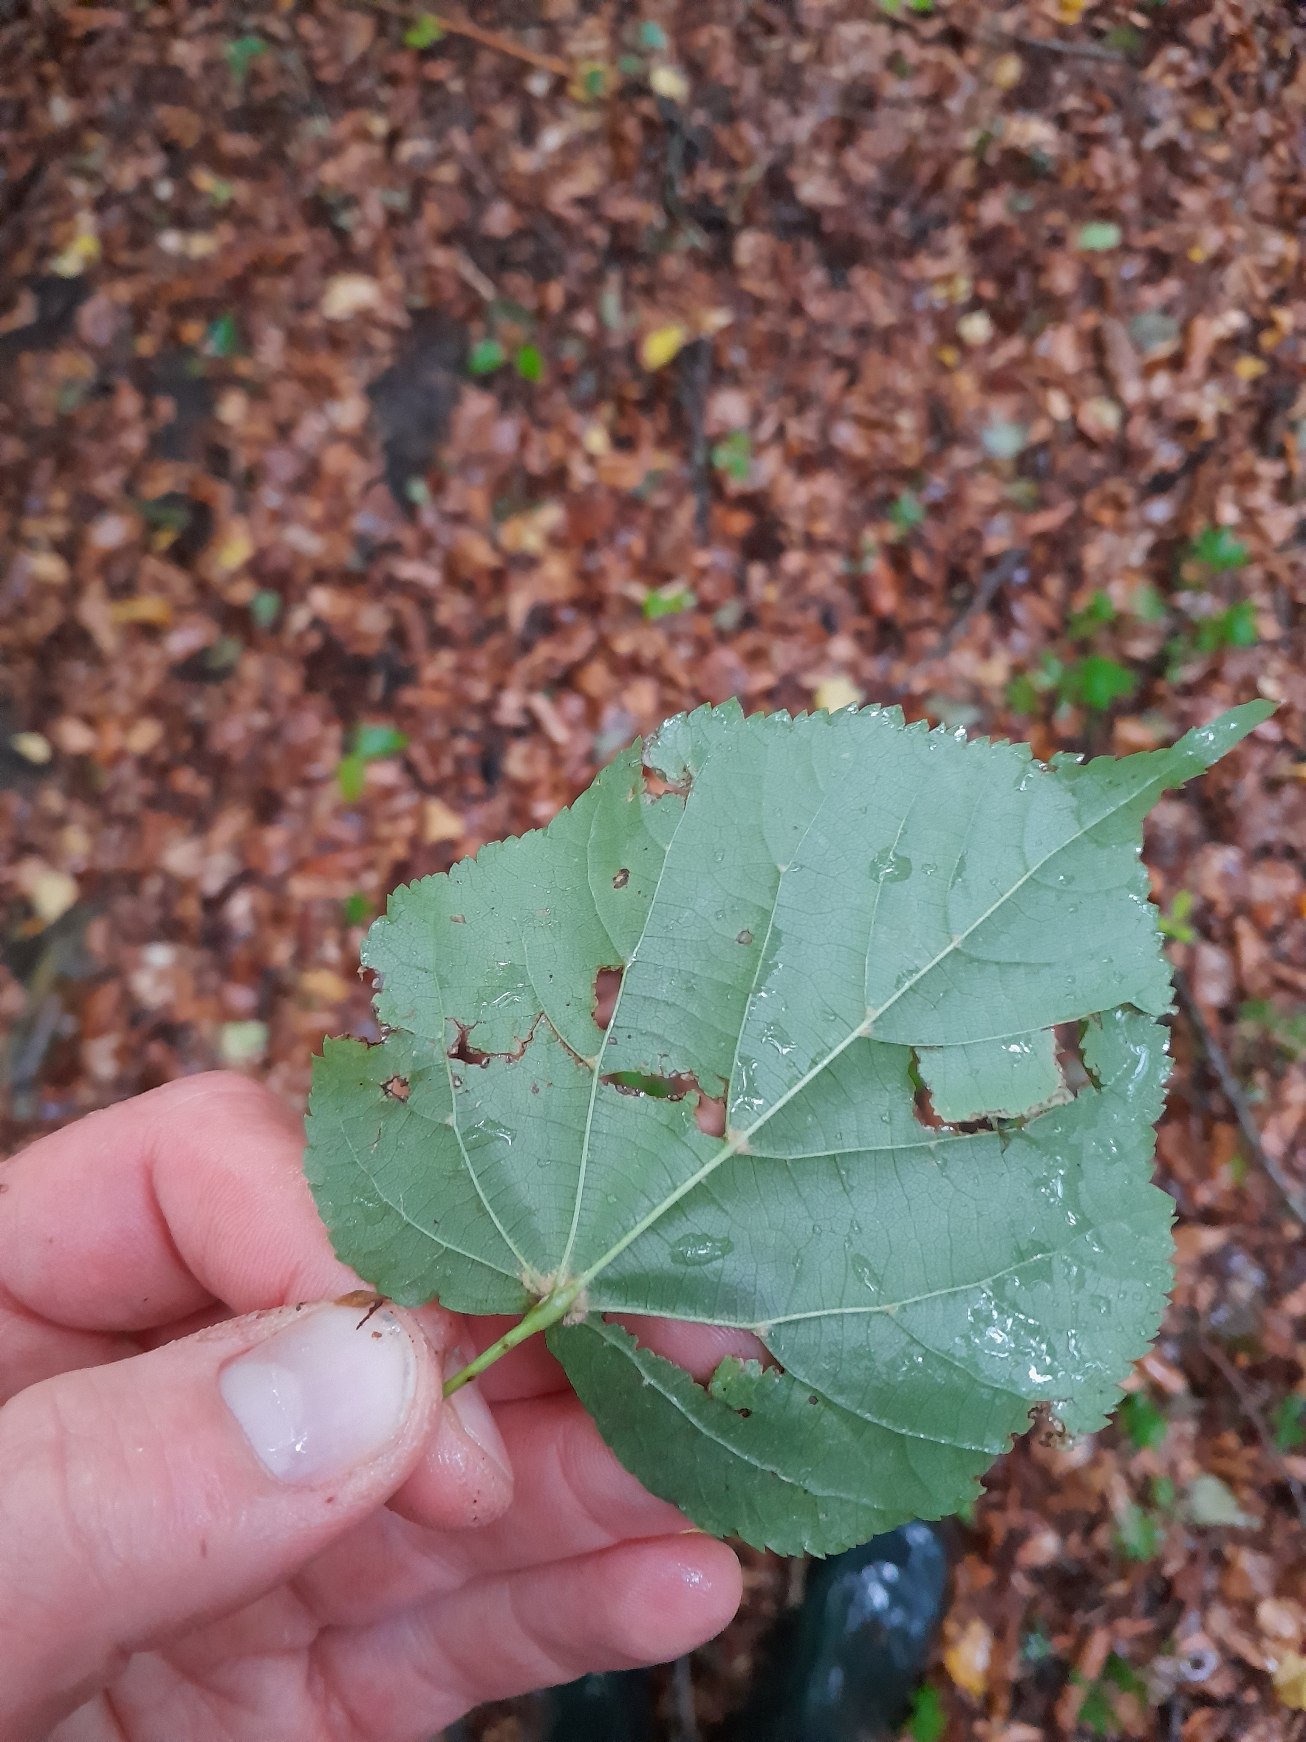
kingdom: Plantae
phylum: Tracheophyta
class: Magnoliopsida
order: Malvales
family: Malvaceae
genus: Tilia
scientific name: Tilia cordata
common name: Småbladet lind
